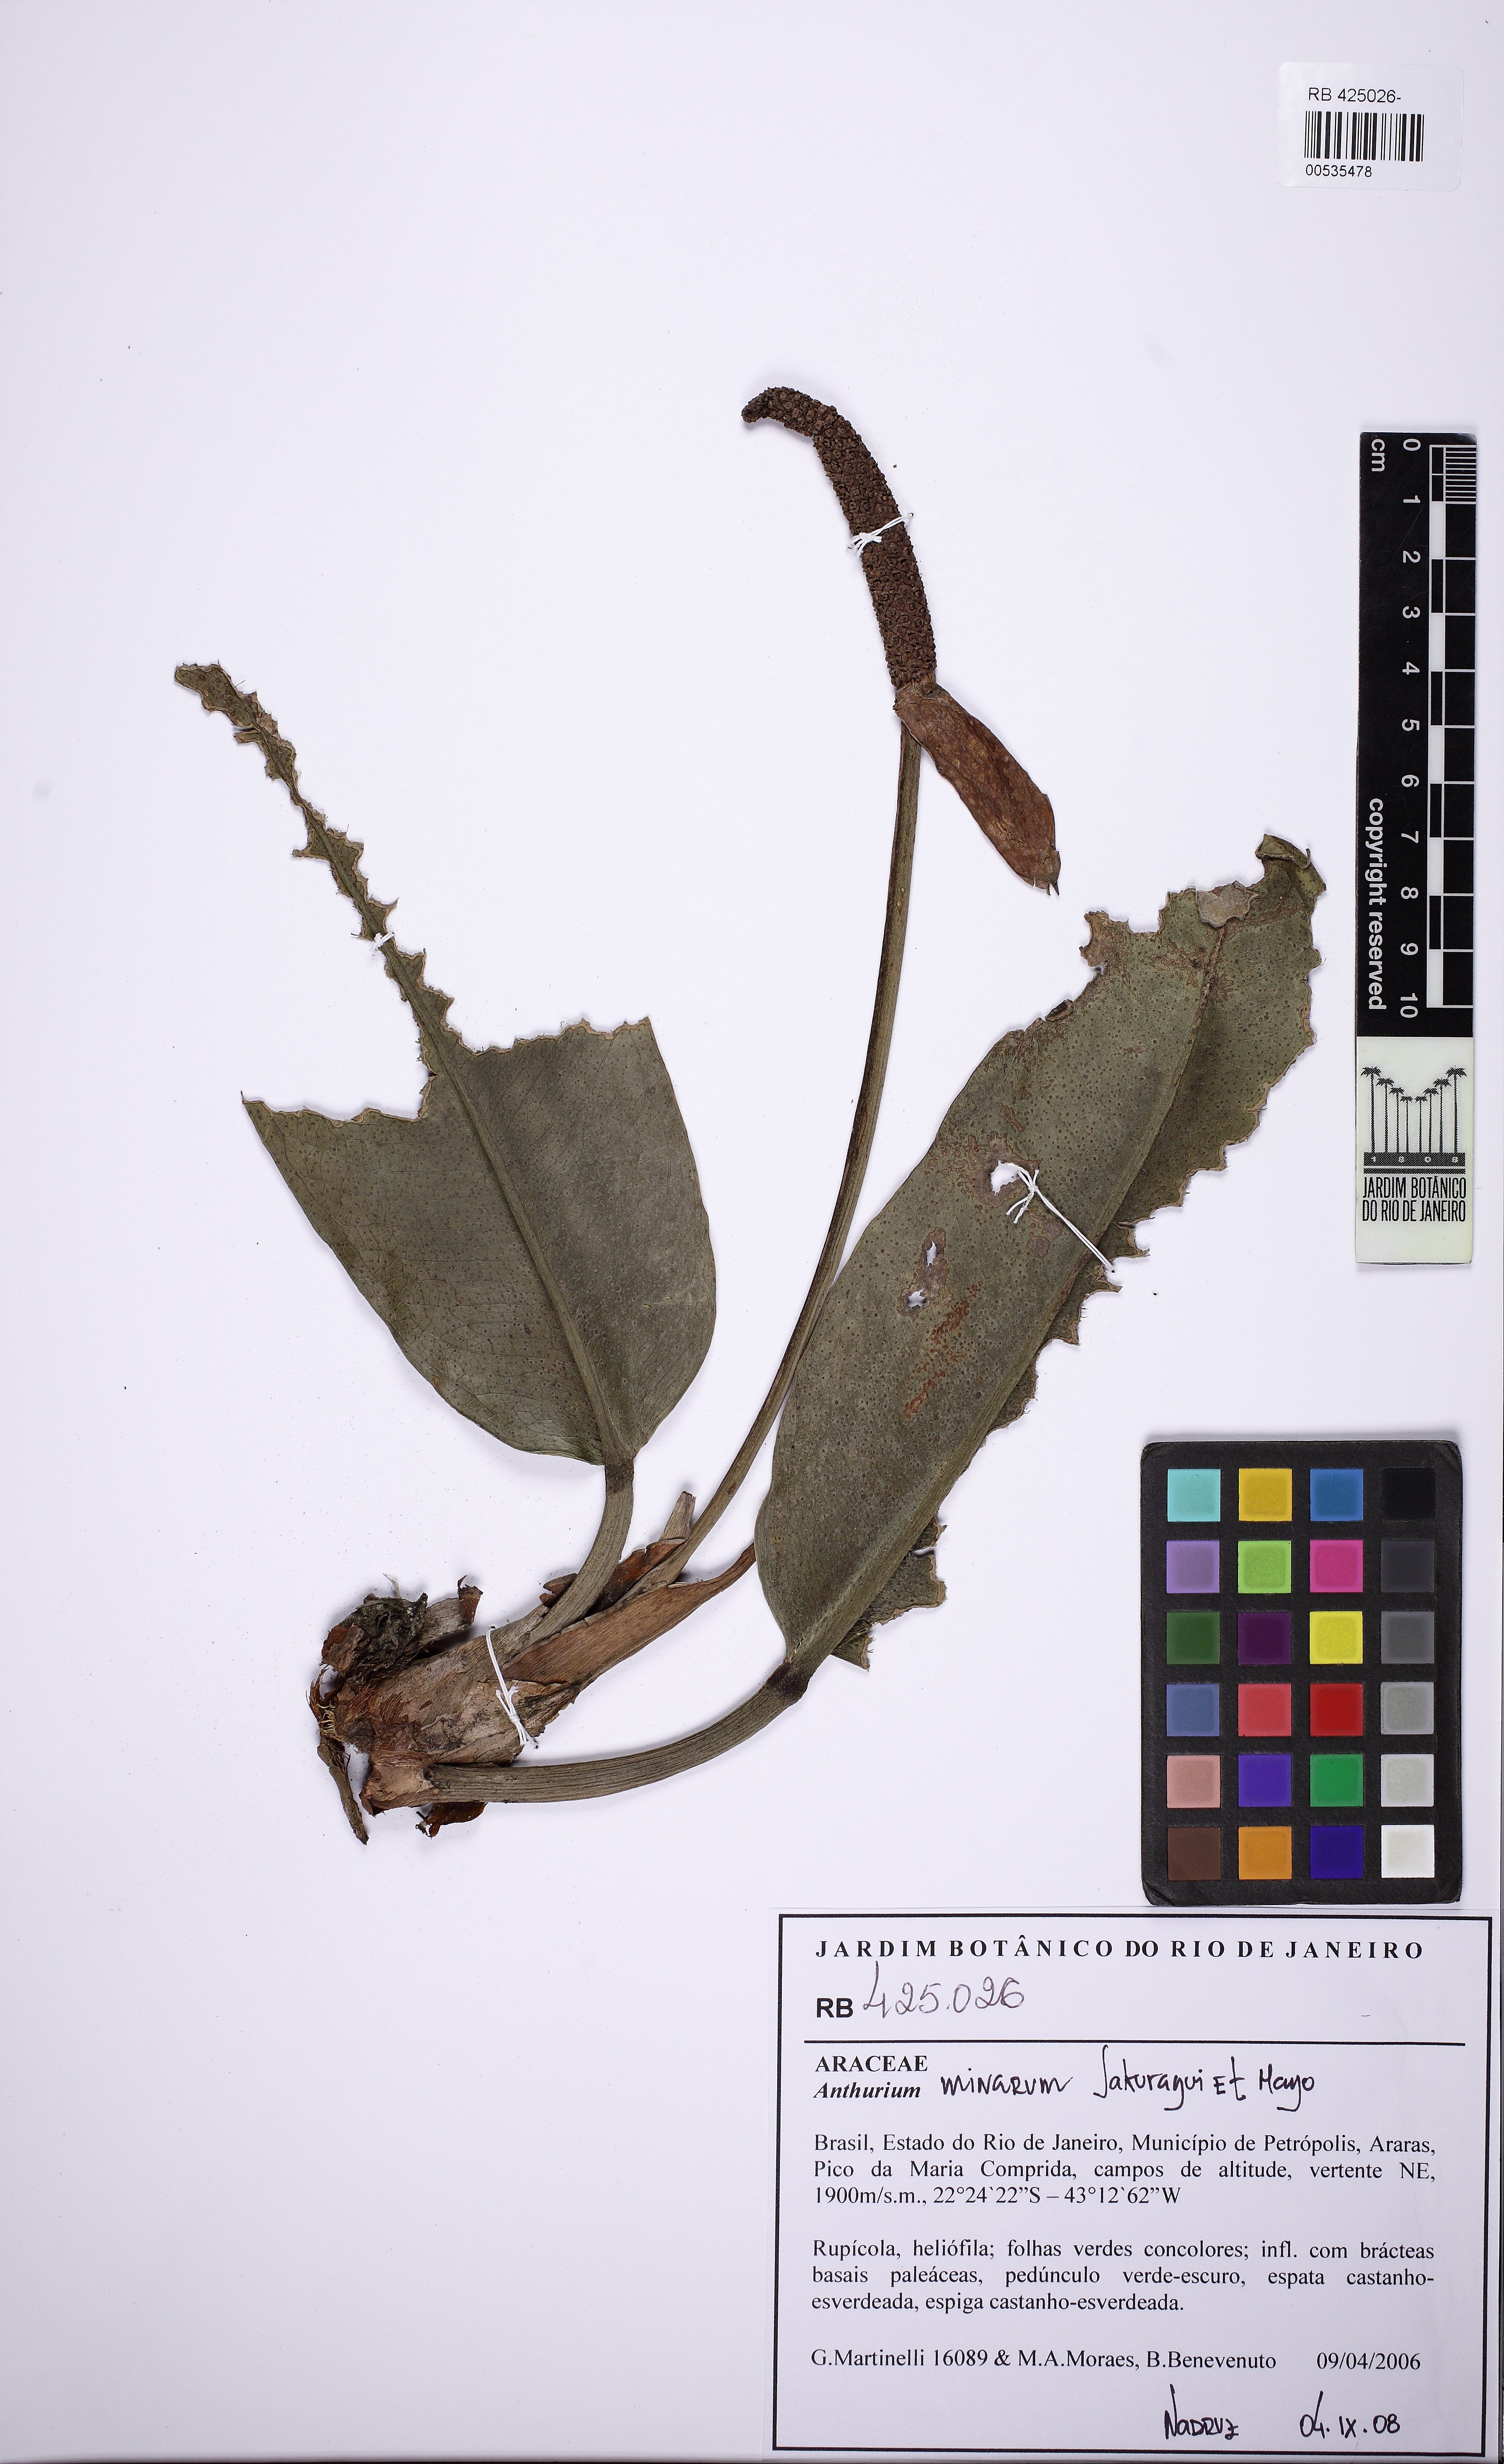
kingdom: Plantae
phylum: Tracheophyta
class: Liliopsida
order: Alismatales
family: Araceae
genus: Anthurium
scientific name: Anthurium minarum
